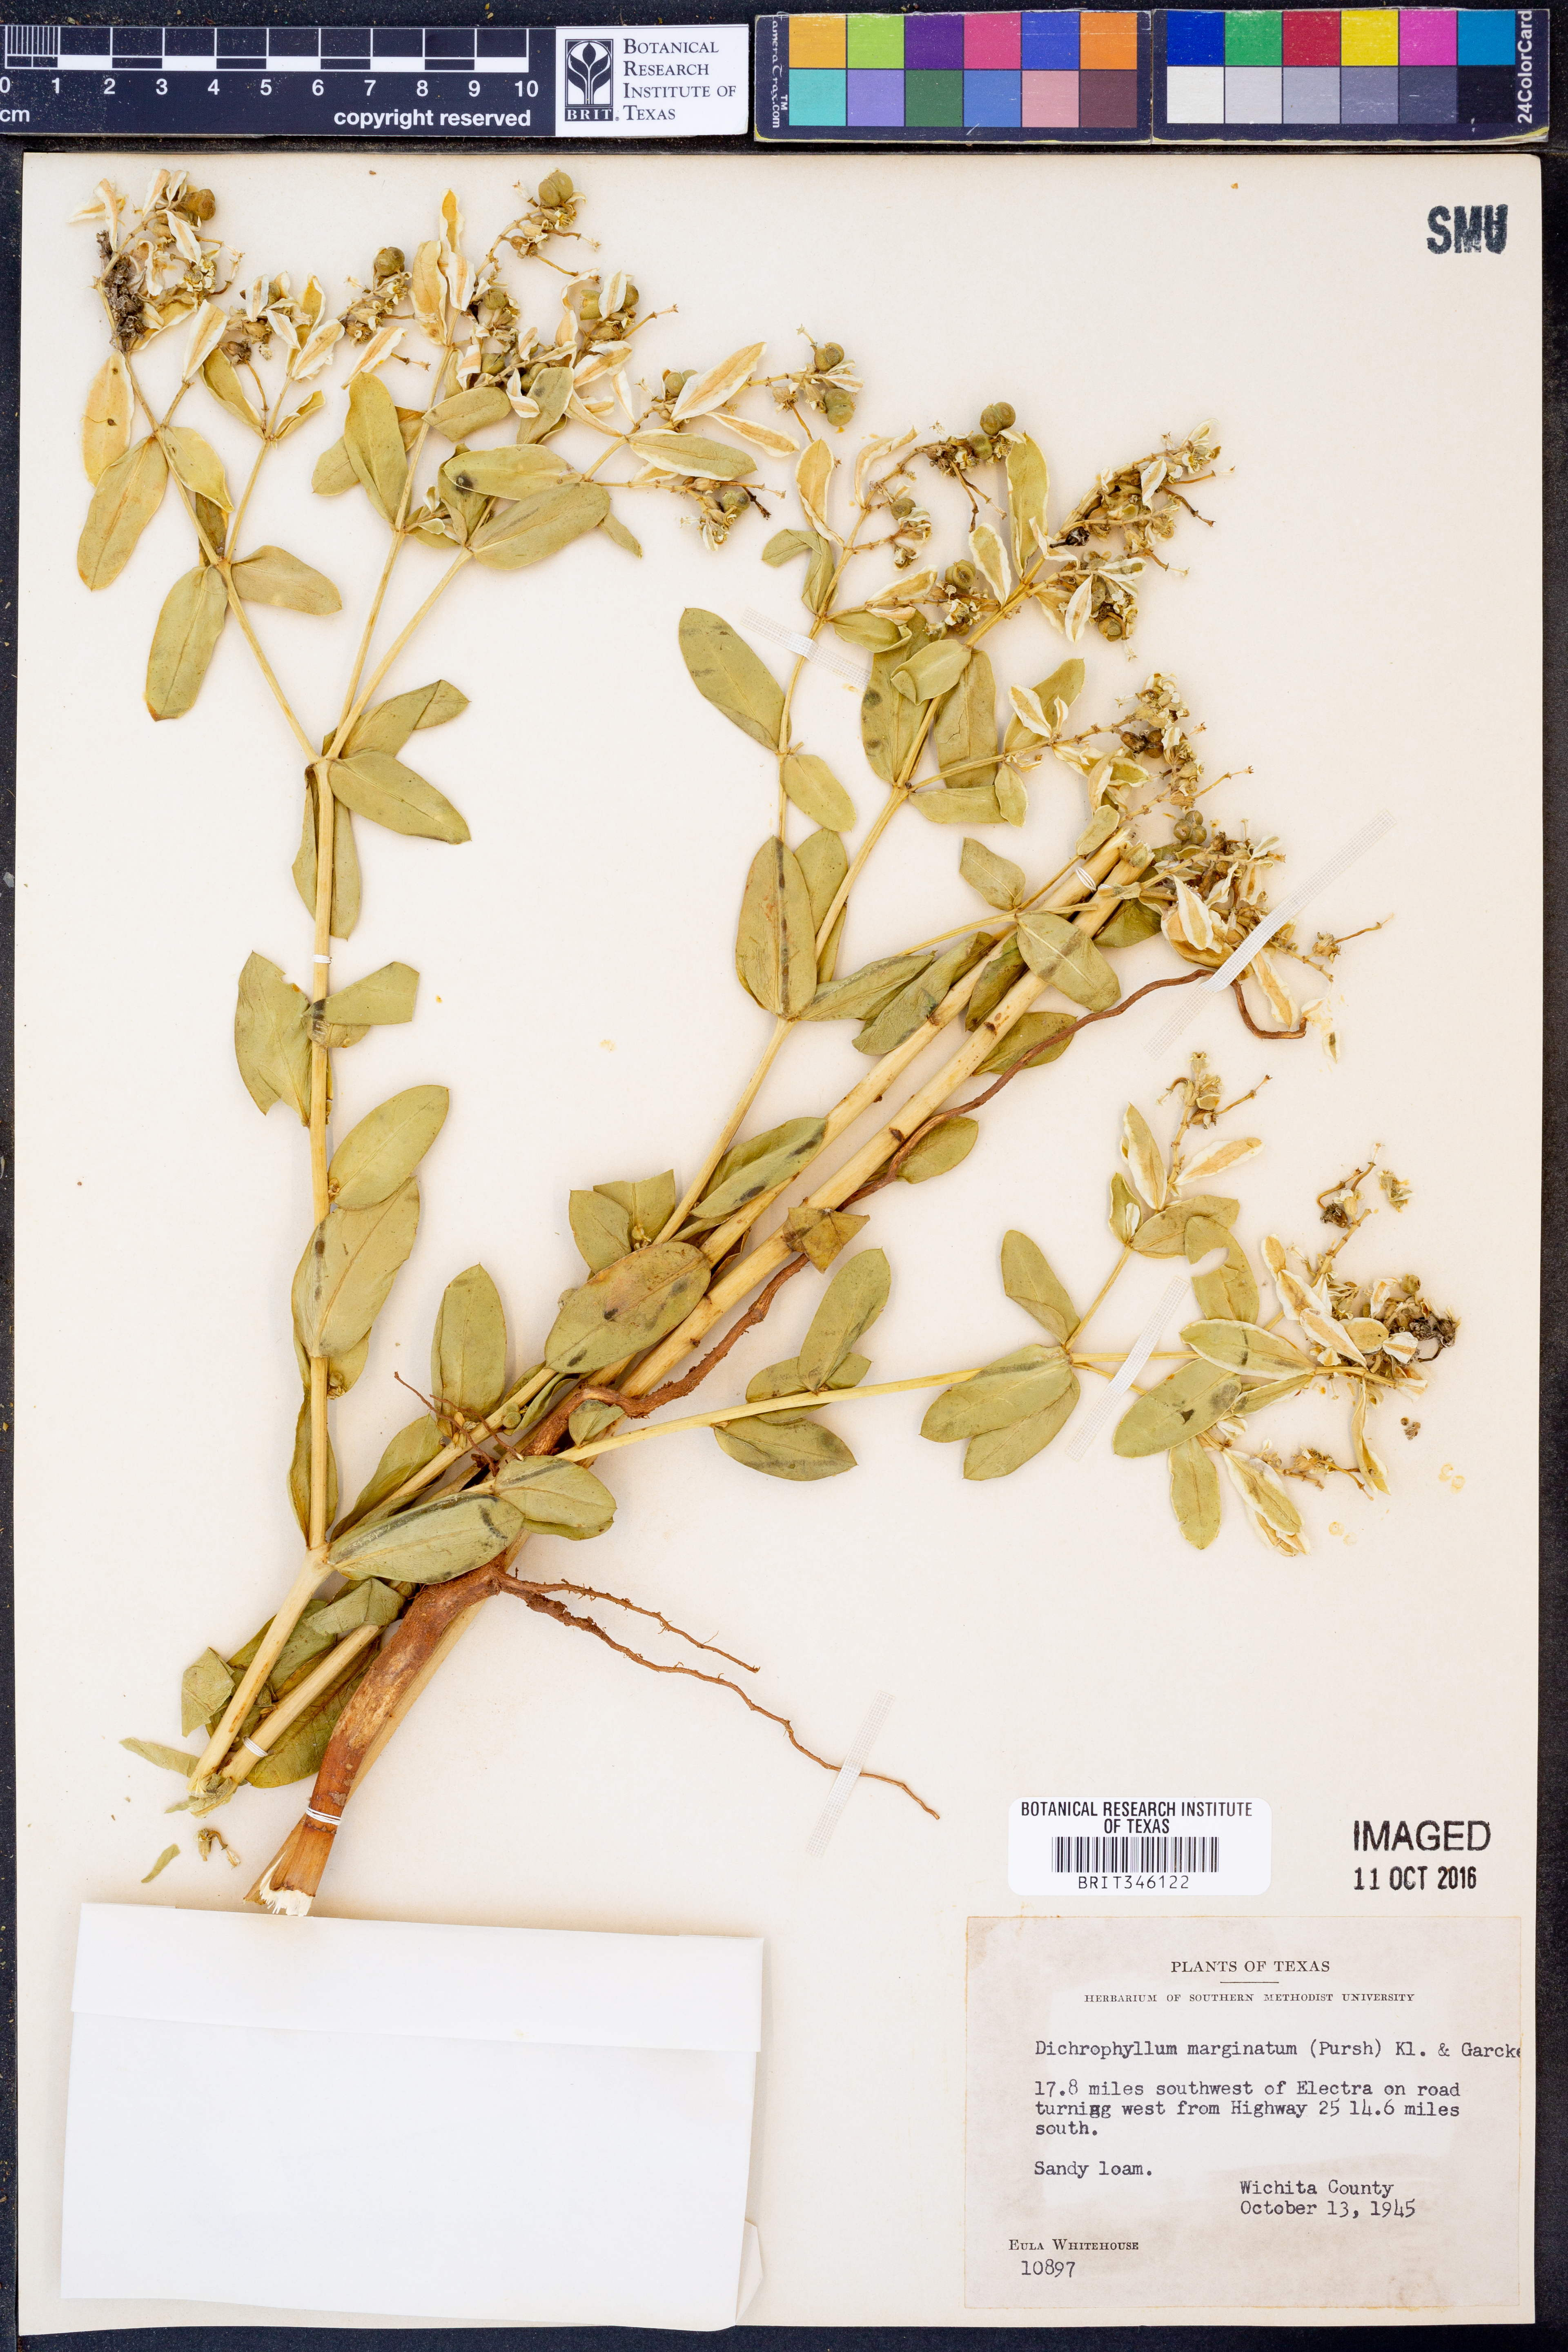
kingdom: Plantae
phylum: Tracheophyta
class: Magnoliopsida
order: Malpighiales
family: Euphorbiaceae
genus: Euphorbia
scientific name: Euphorbia marginata
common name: Ghostweed
